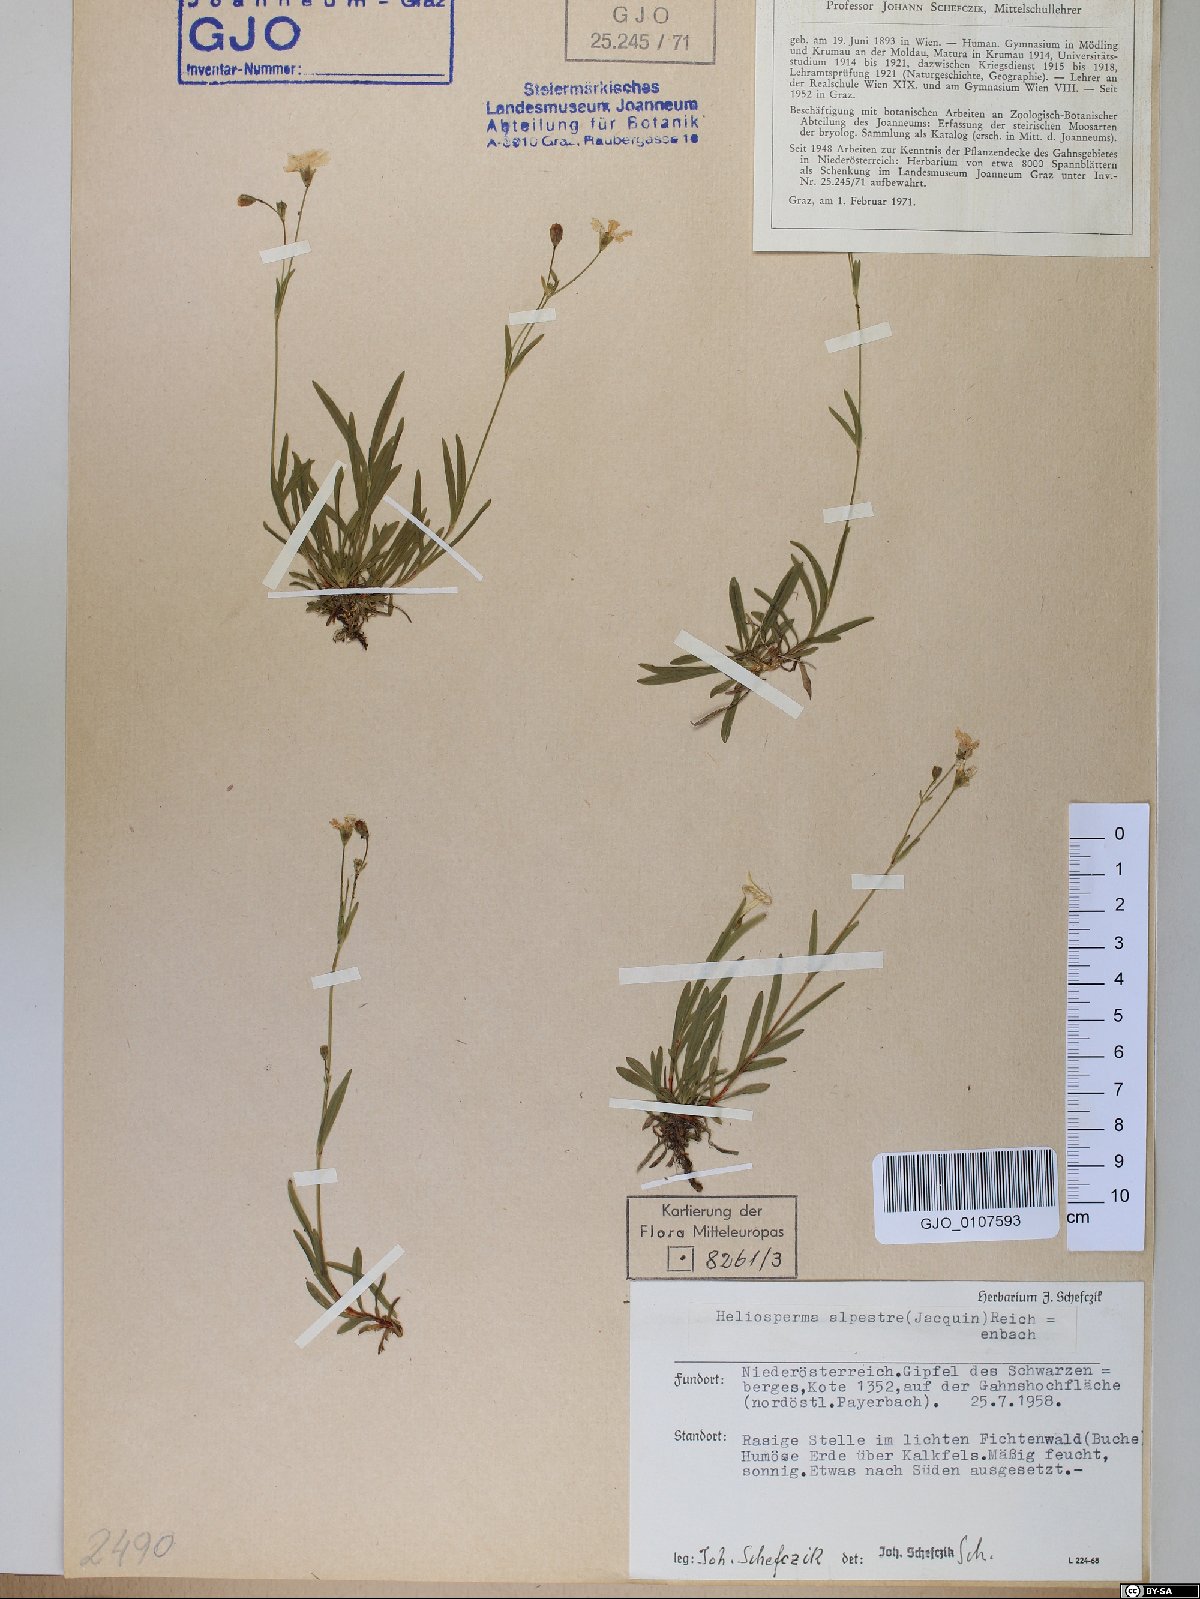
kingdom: Plantae
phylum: Tracheophyta
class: Magnoliopsida
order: Caryophyllales
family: Caryophyllaceae
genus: Heliosperma
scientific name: Heliosperma alpestre
